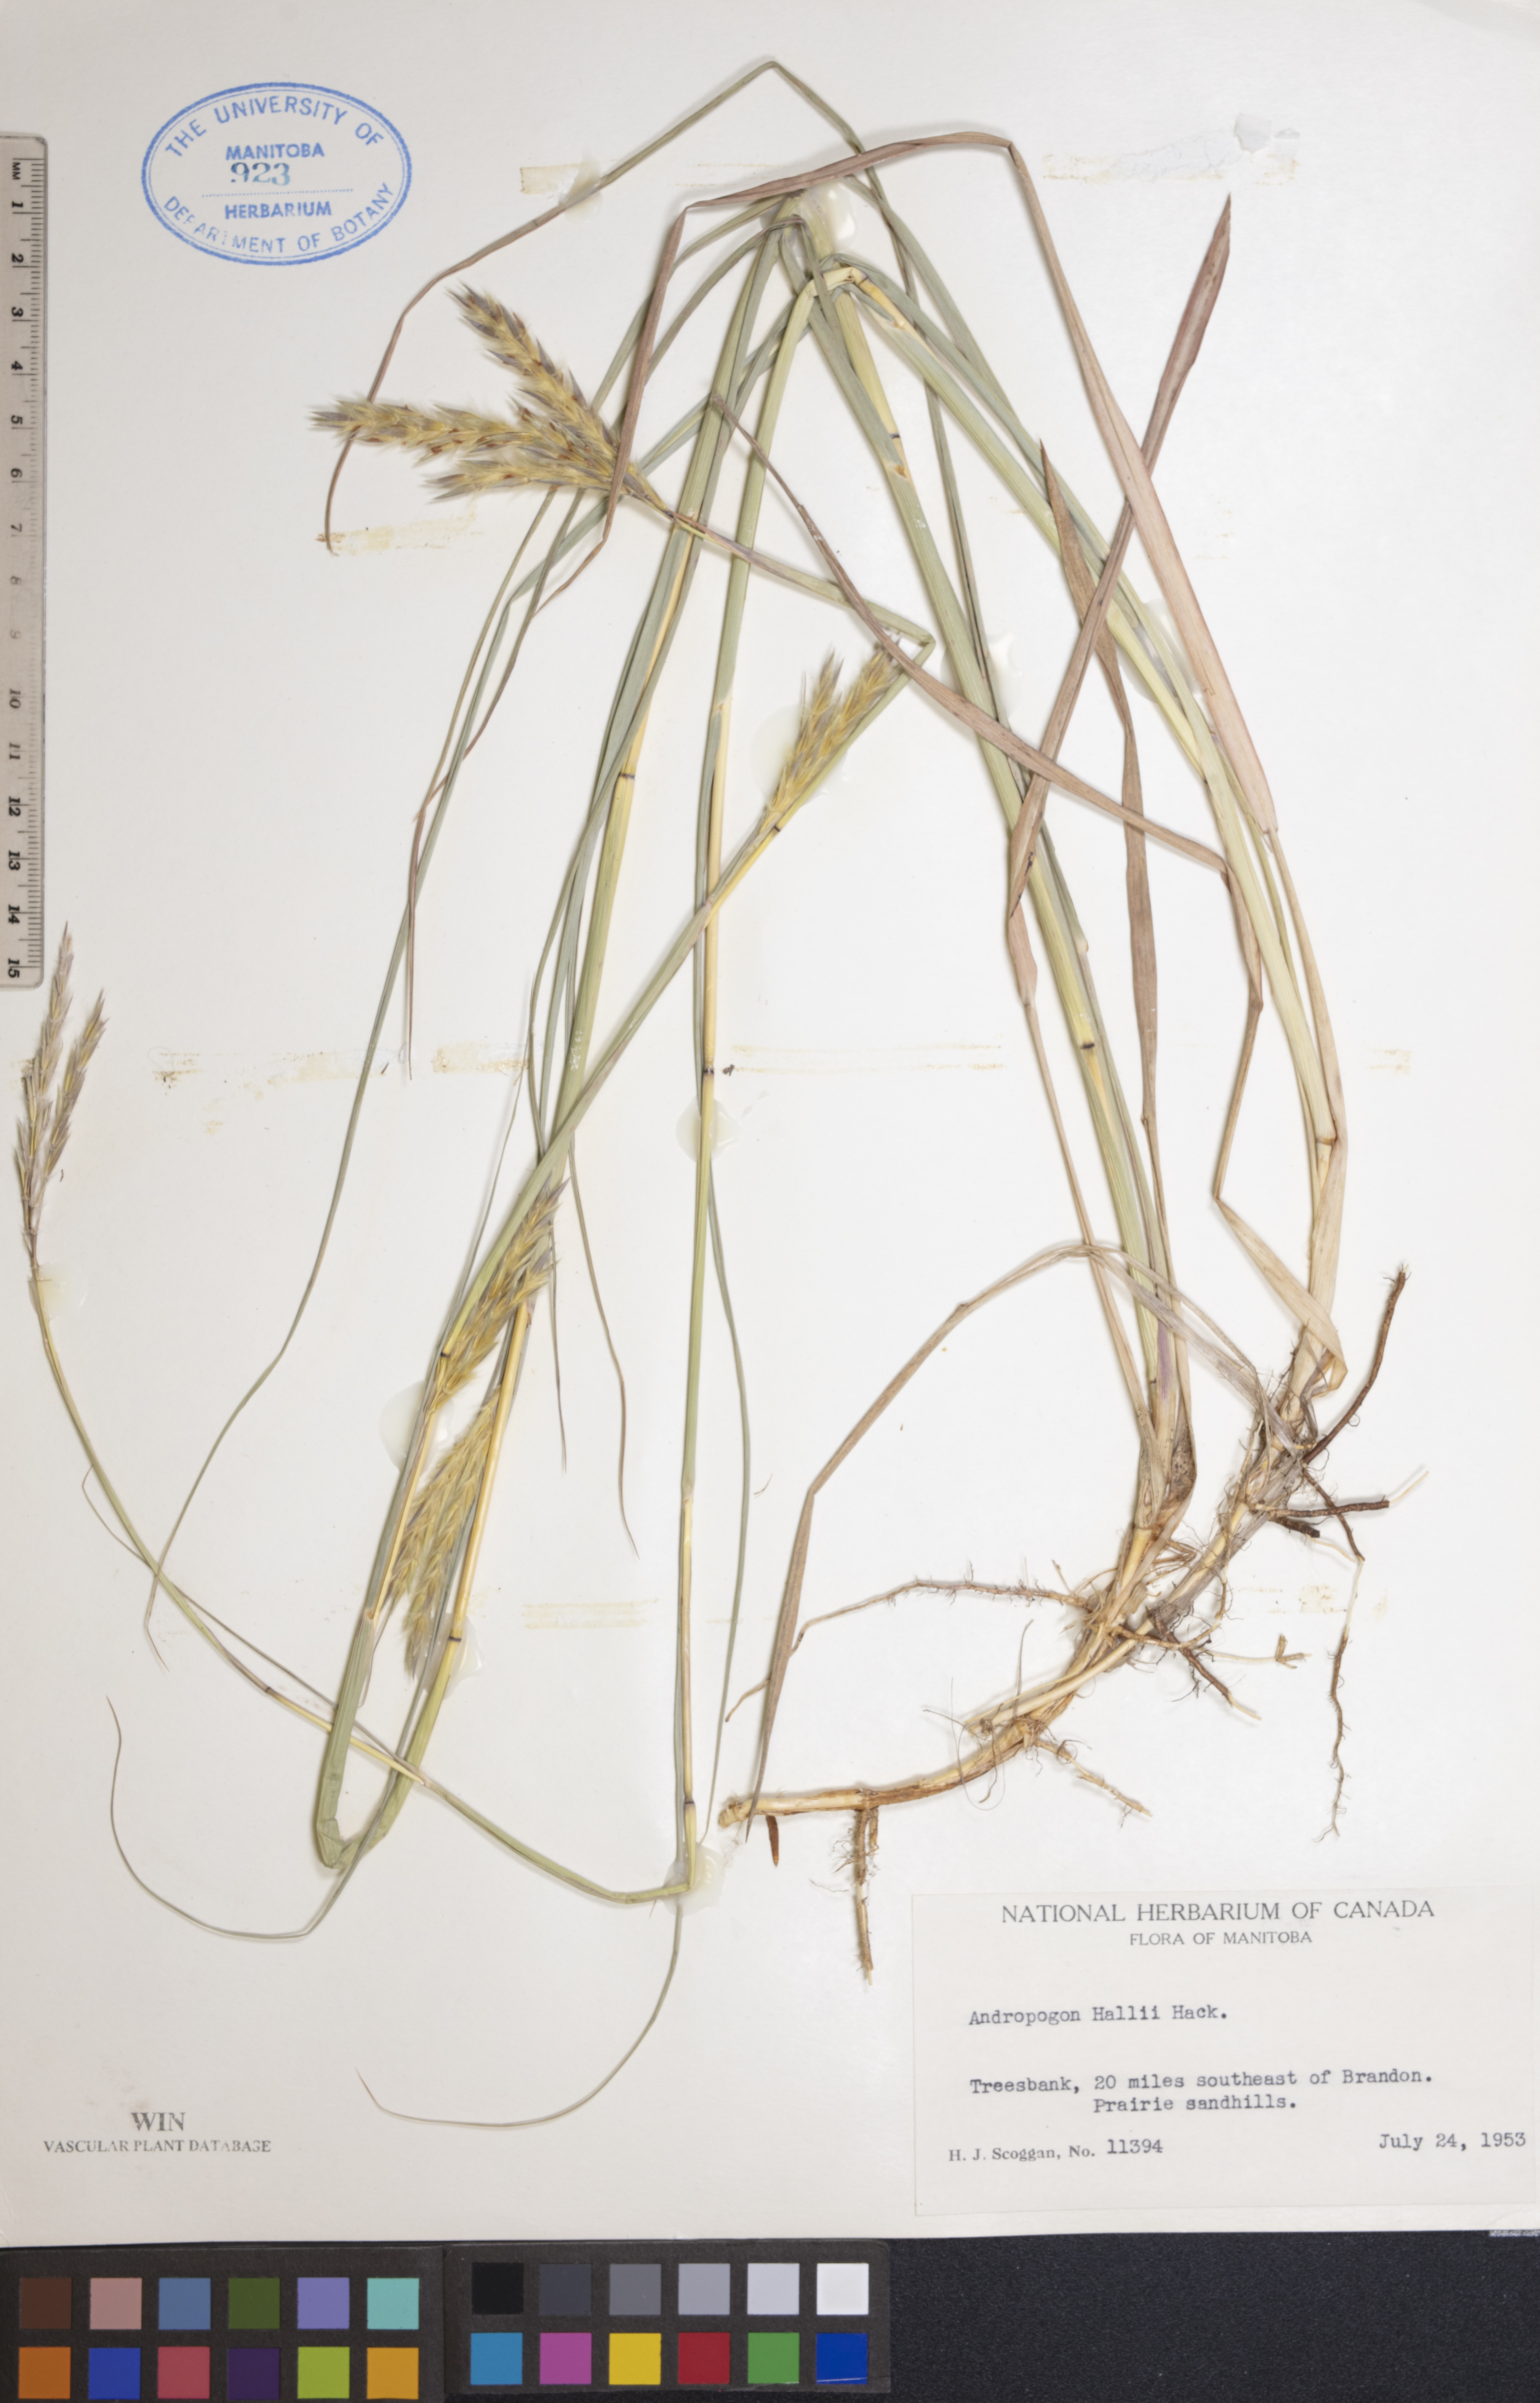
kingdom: Plantae
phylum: Tracheophyta
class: Liliopsida
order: Poales
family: Poaceae
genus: Andropogon
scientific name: Andropogon hallii
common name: Sand bluestem
